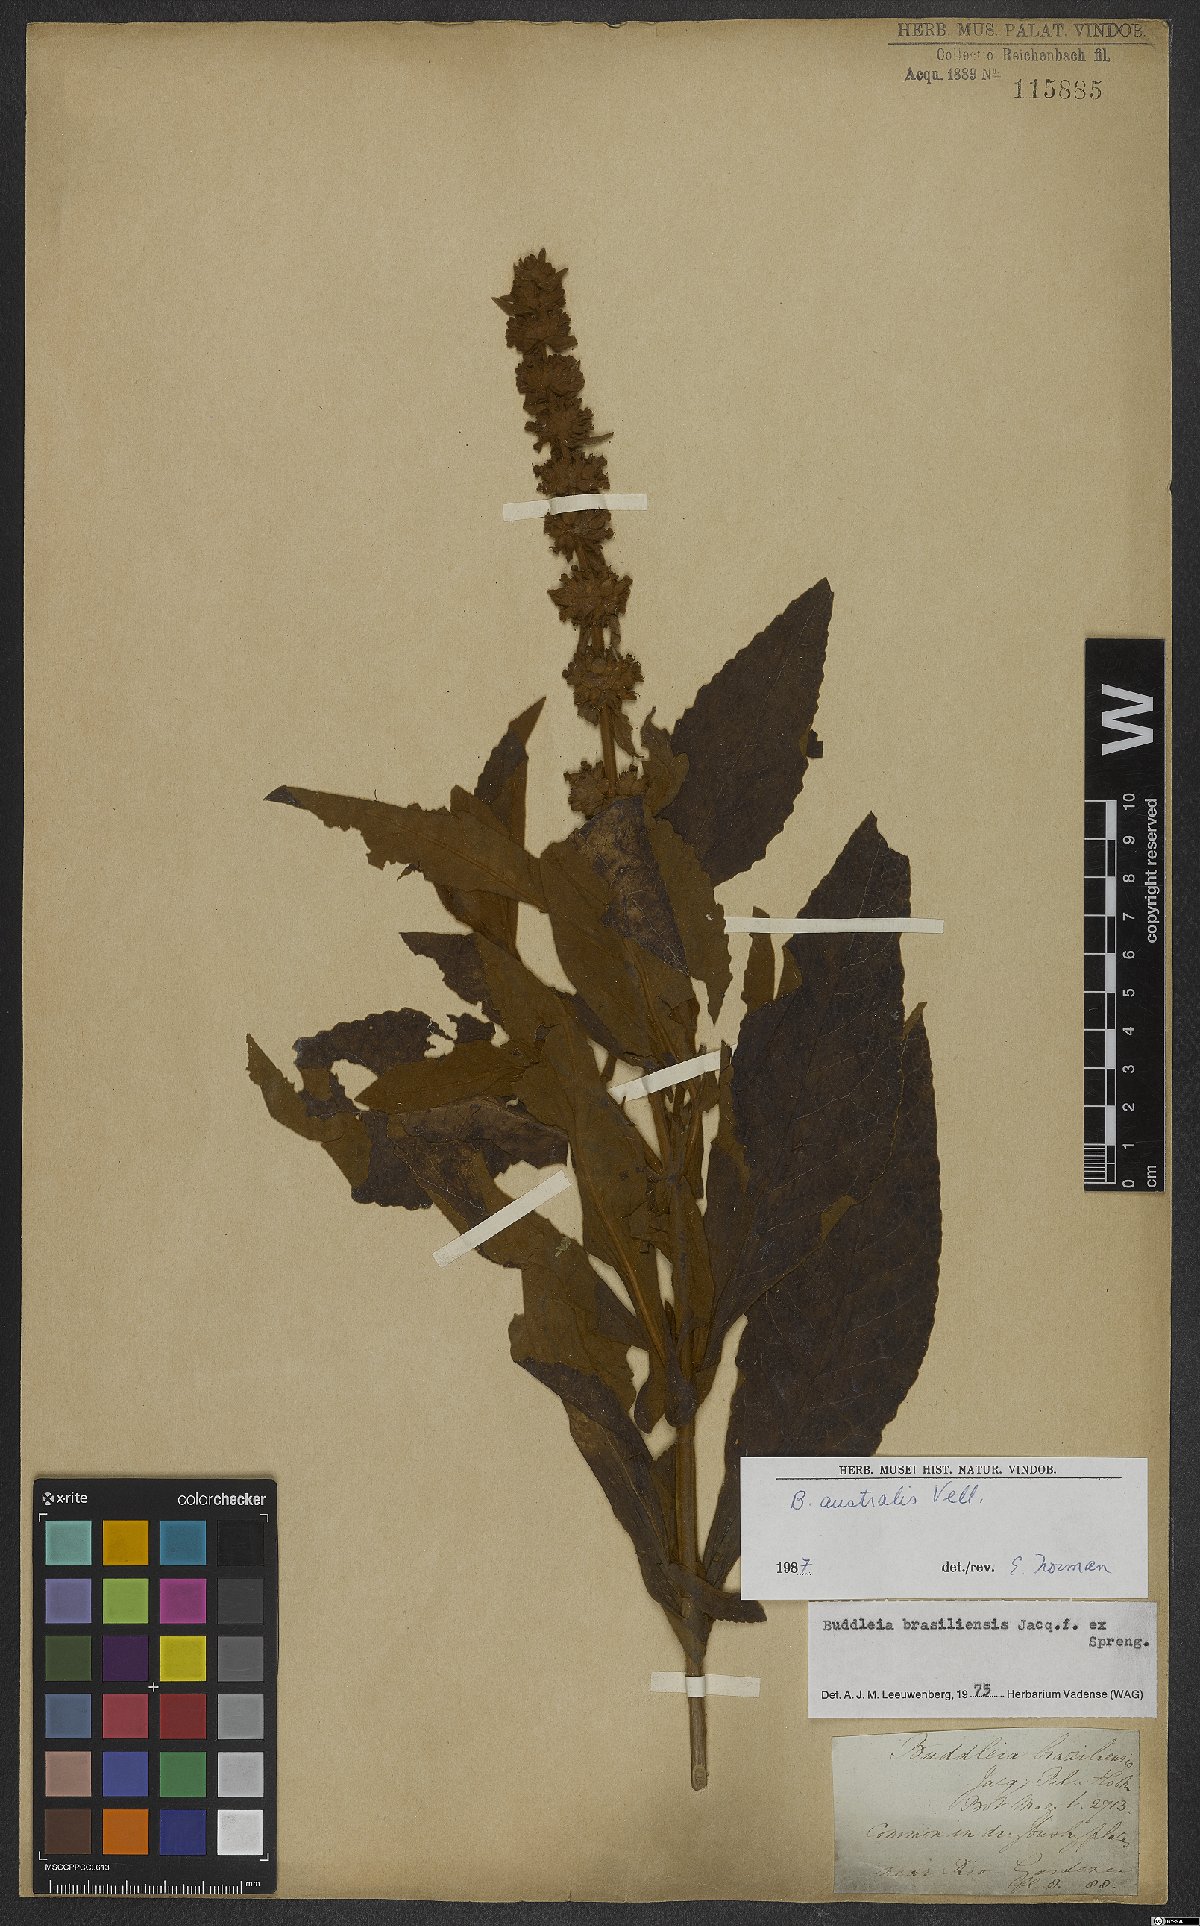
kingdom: Plantae
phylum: Tracheophyta
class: Magnoliopsida
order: Lamiales
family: Scrophulariaceae
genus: Buddleja
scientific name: Buddleja stachyoides
